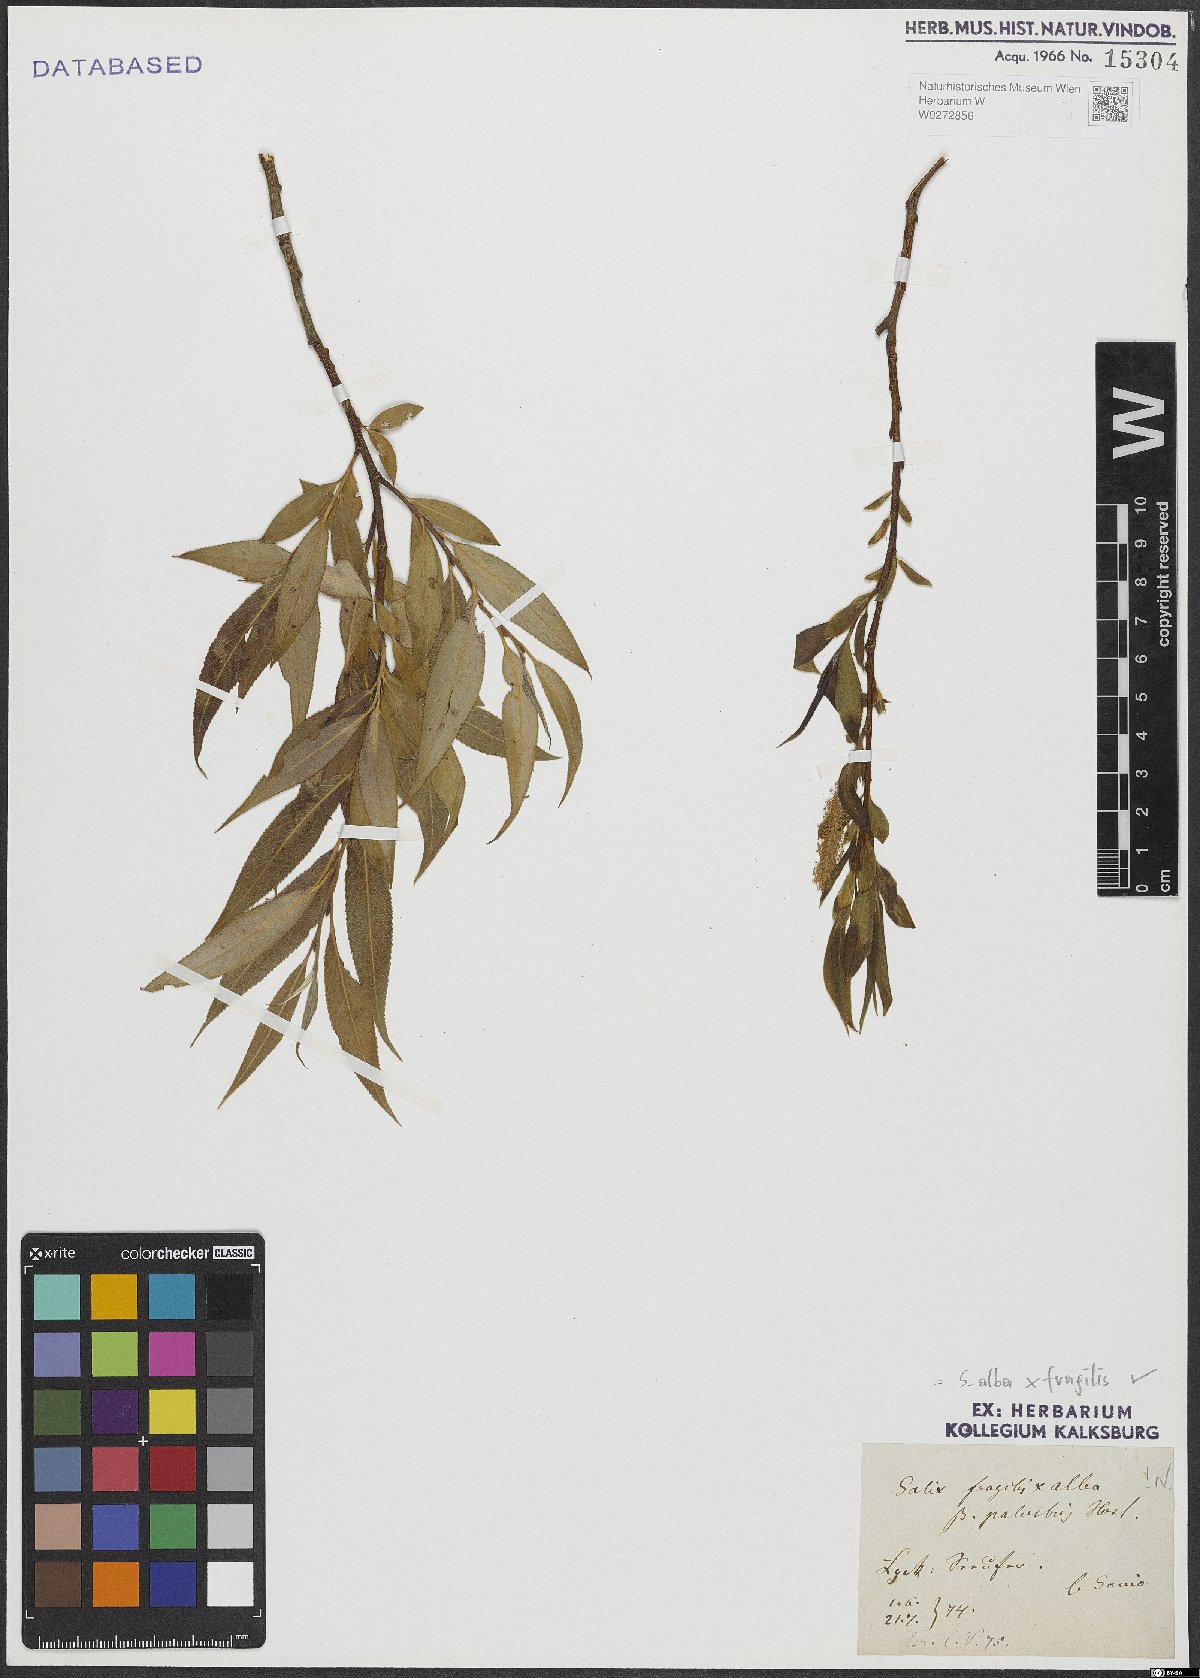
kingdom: Plantae
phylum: Tracheophyta
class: Magnoliopsida
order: Malpighiales
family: Salicaceae
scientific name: Salicaceae
